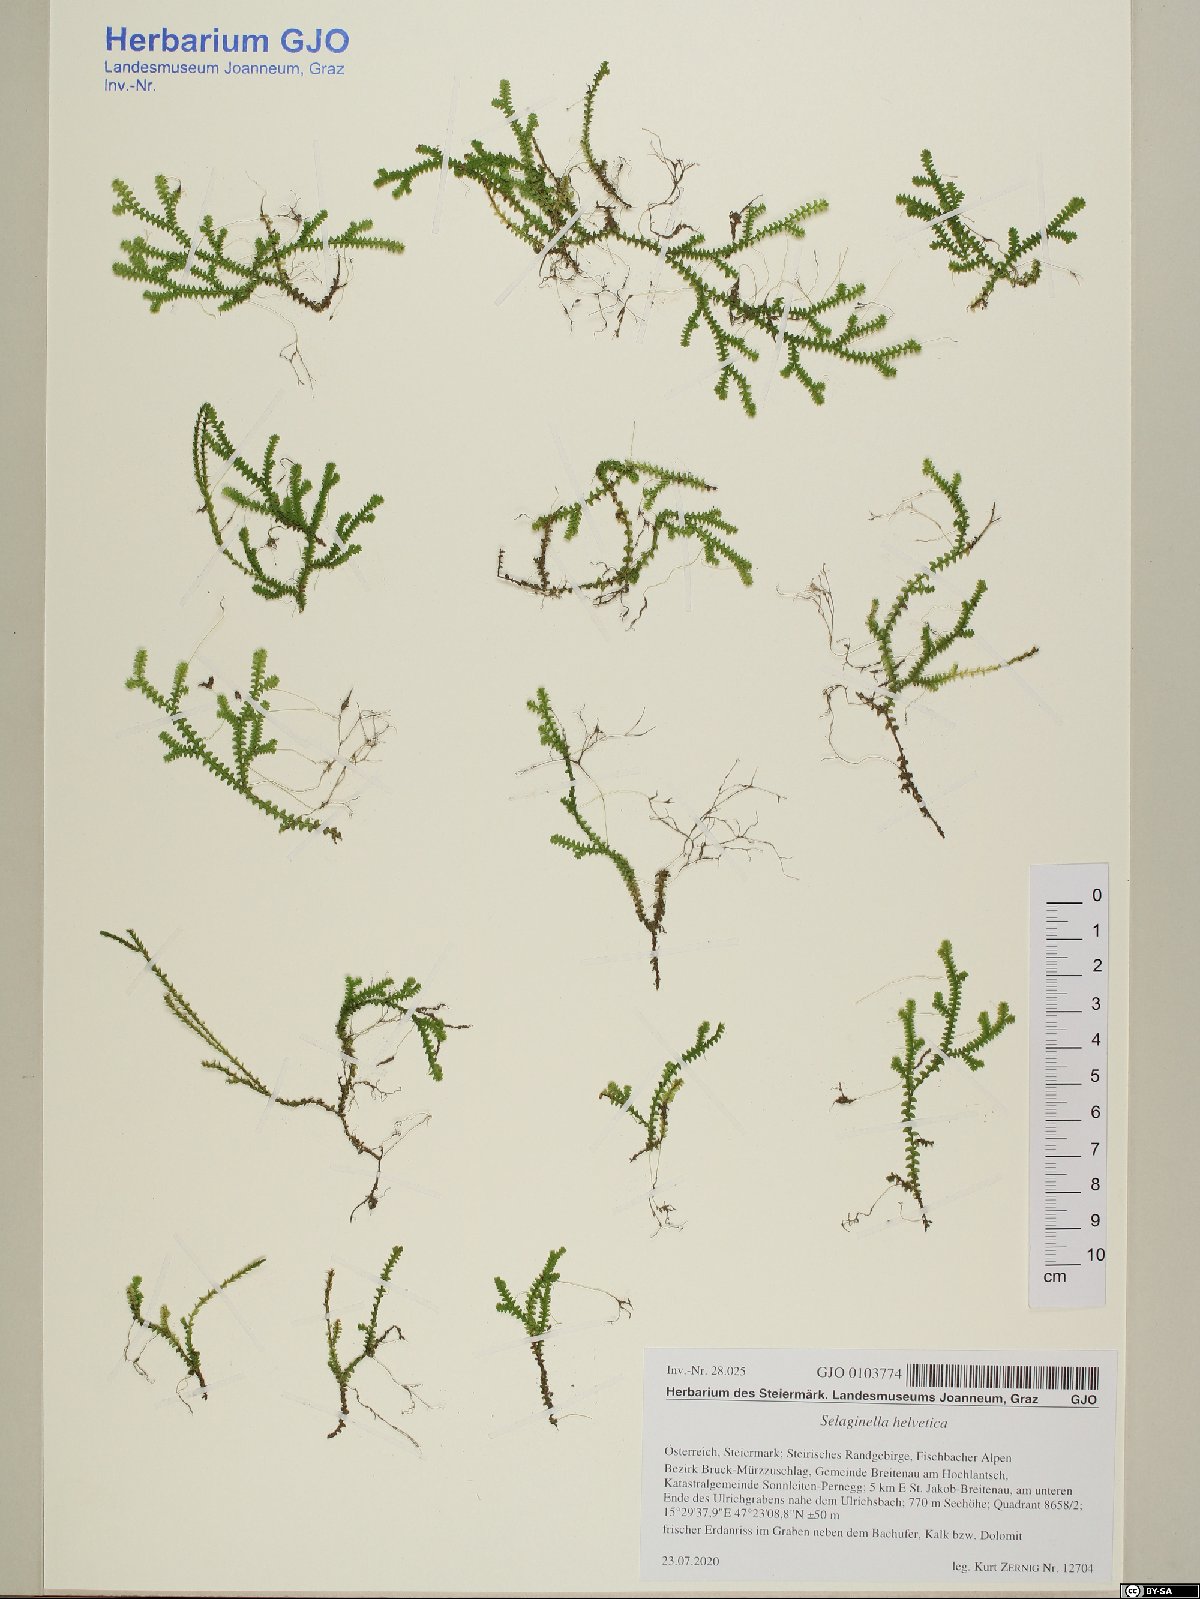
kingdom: Plantae
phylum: Tracheophyta
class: Lycopodiopsida
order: Selaginellales
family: Selaginellaceae
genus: Selaginella
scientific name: Selaginella helvetica
